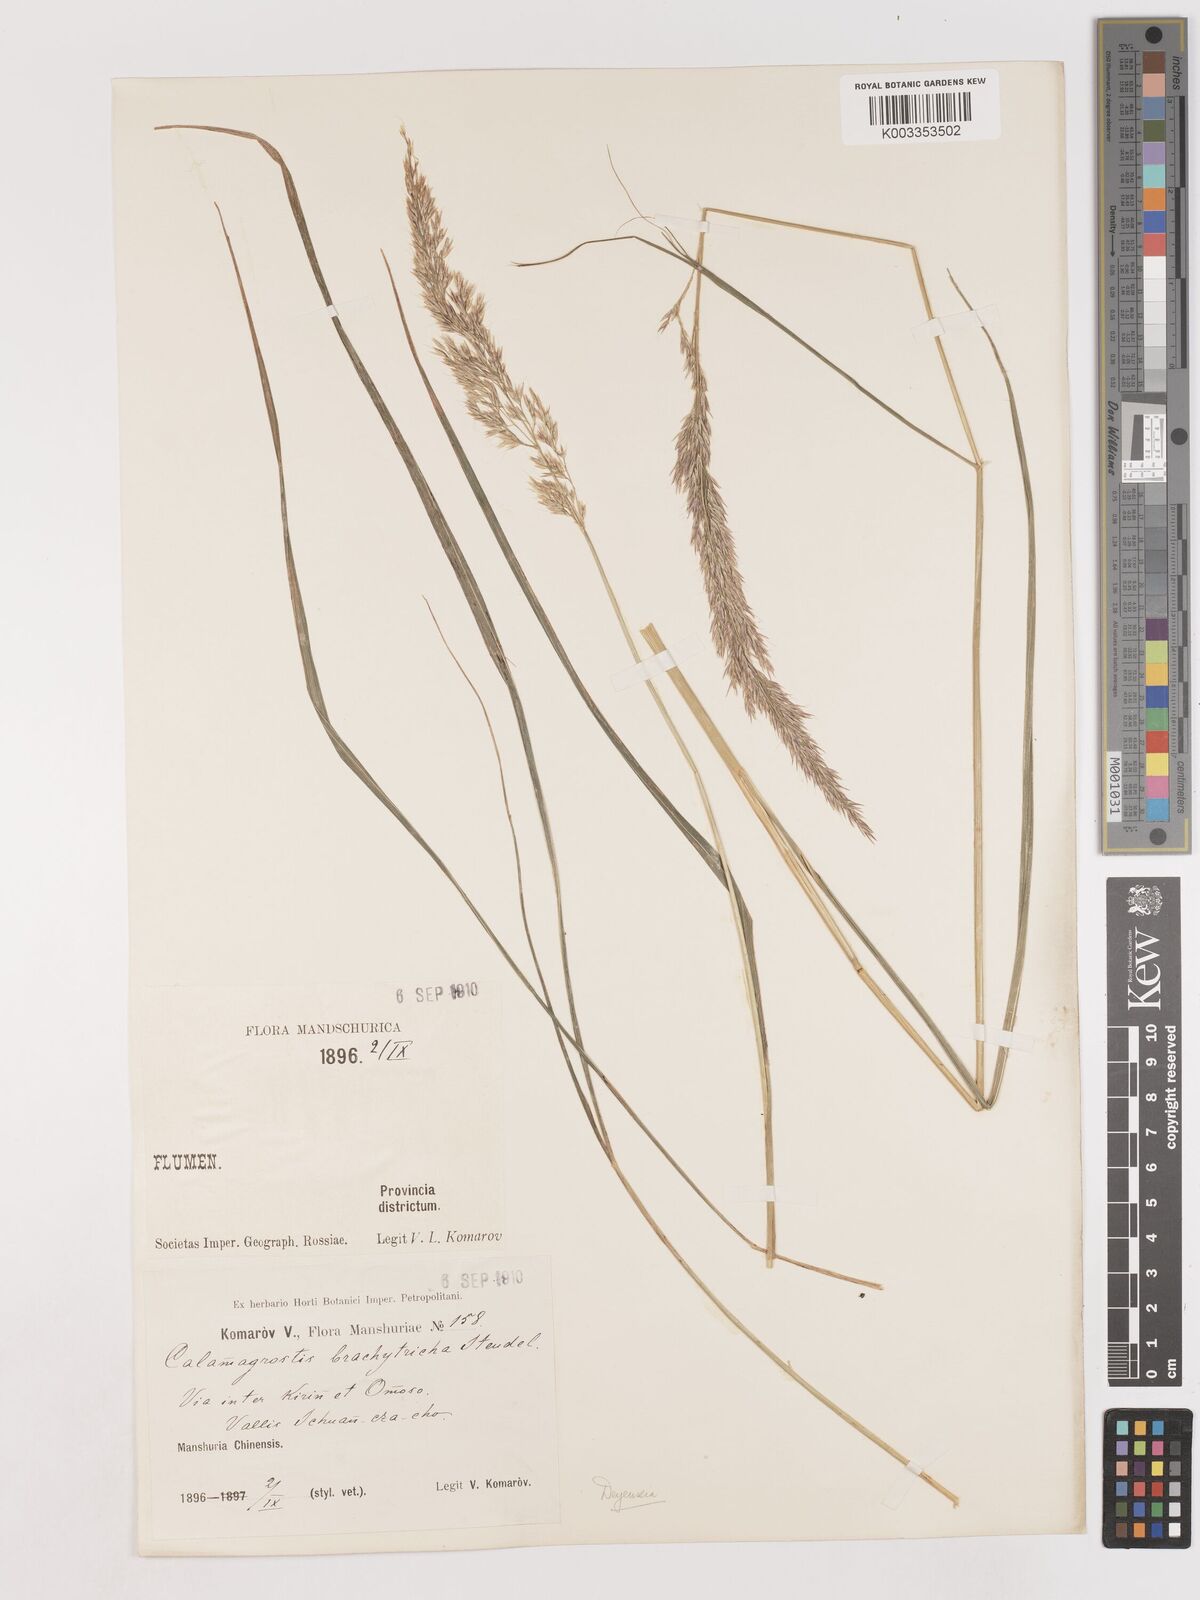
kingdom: Plantae
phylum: Tracheophyta
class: Liliopsida
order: Poales
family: Poaceae
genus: Calamagrostis
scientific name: Calamagrostis
